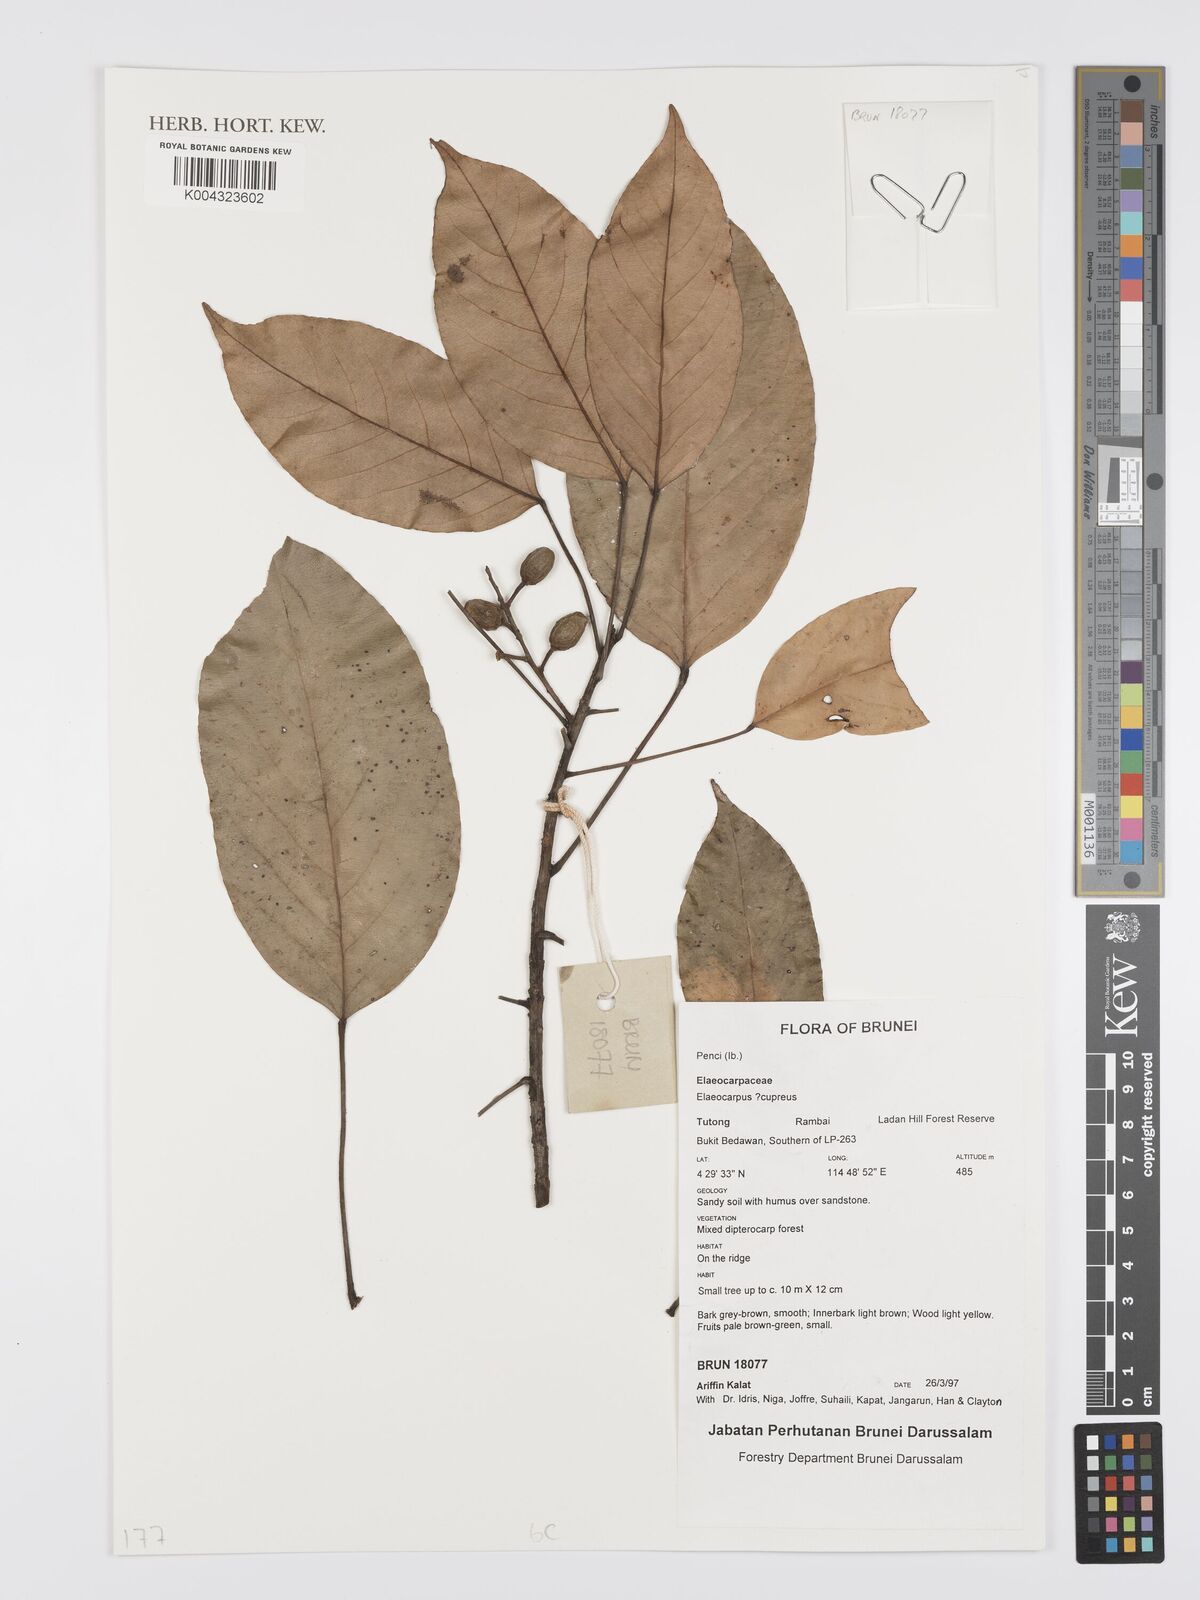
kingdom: Plantae
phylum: Tracheophyta
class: Magnoliopsida
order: Oxalidales
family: Elaeocarpaceae
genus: Elaeocarpus
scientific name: Elaeocarpus cupreus
